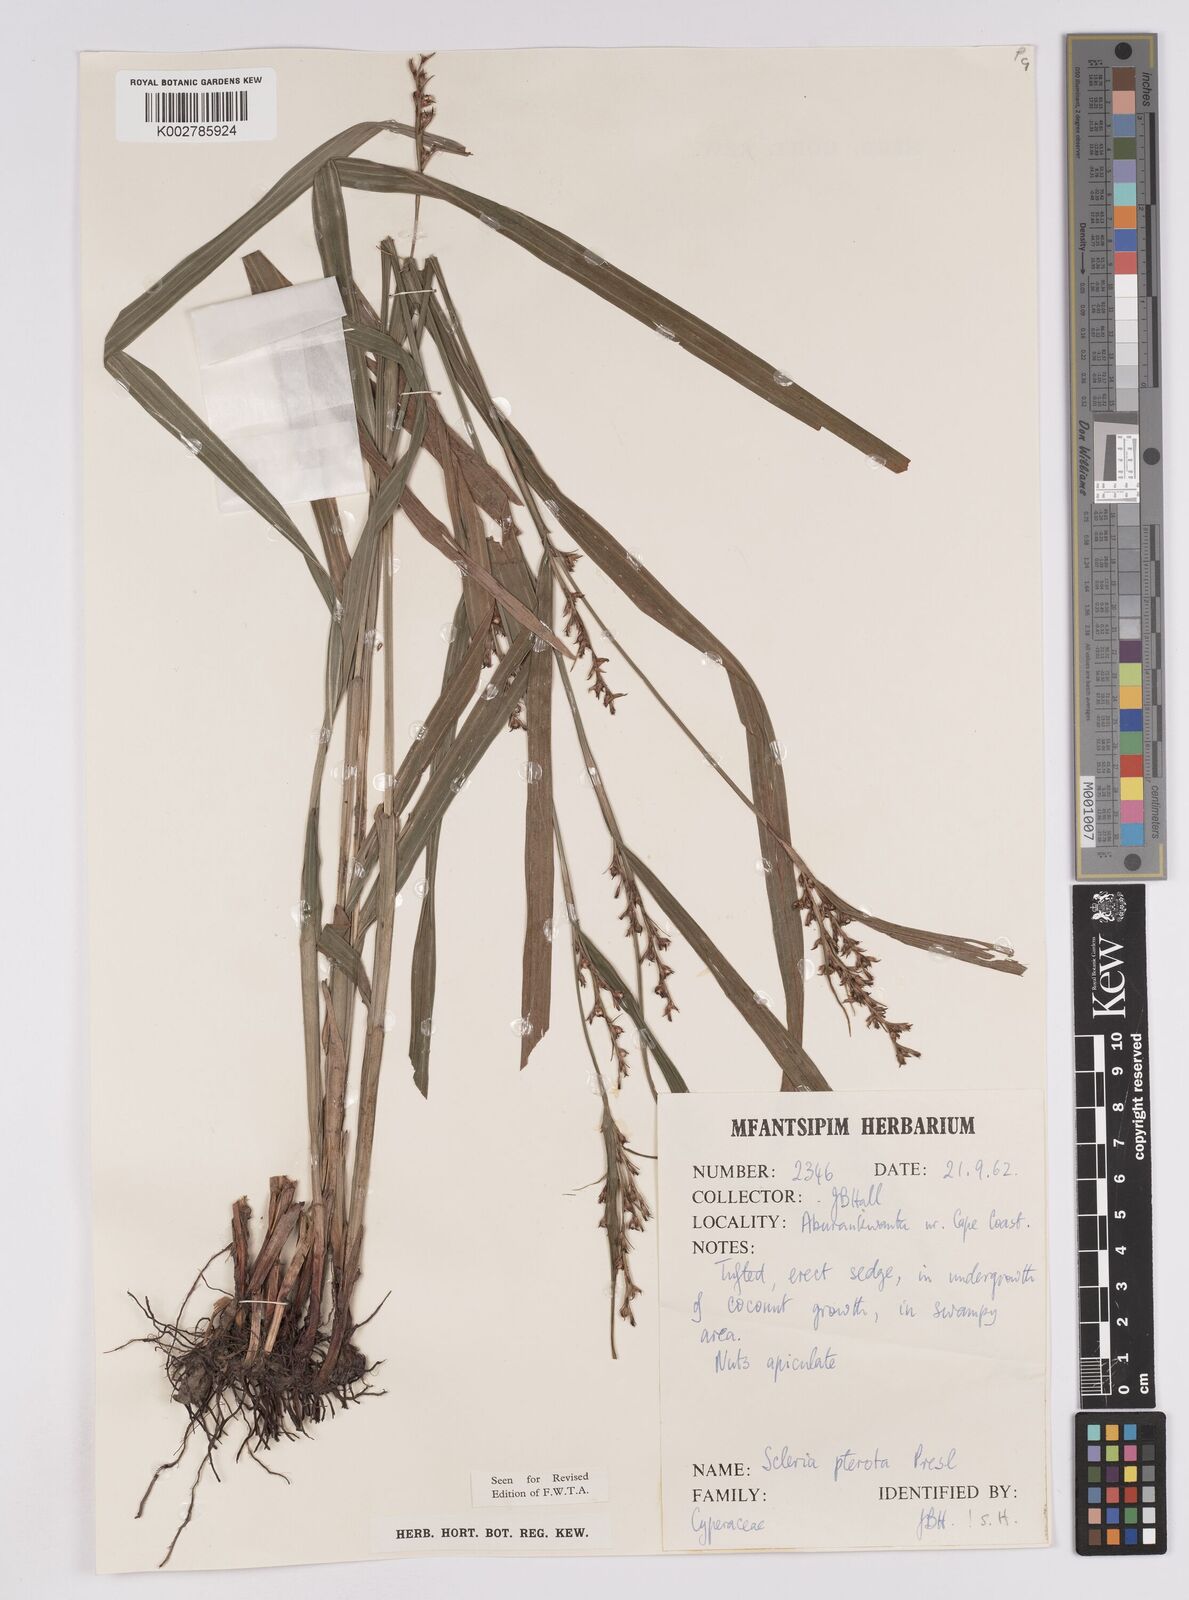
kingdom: Plantae
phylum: Tracheophyta
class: Liliopsida
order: Poales
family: Cyperaceae
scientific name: Cyperaceae
